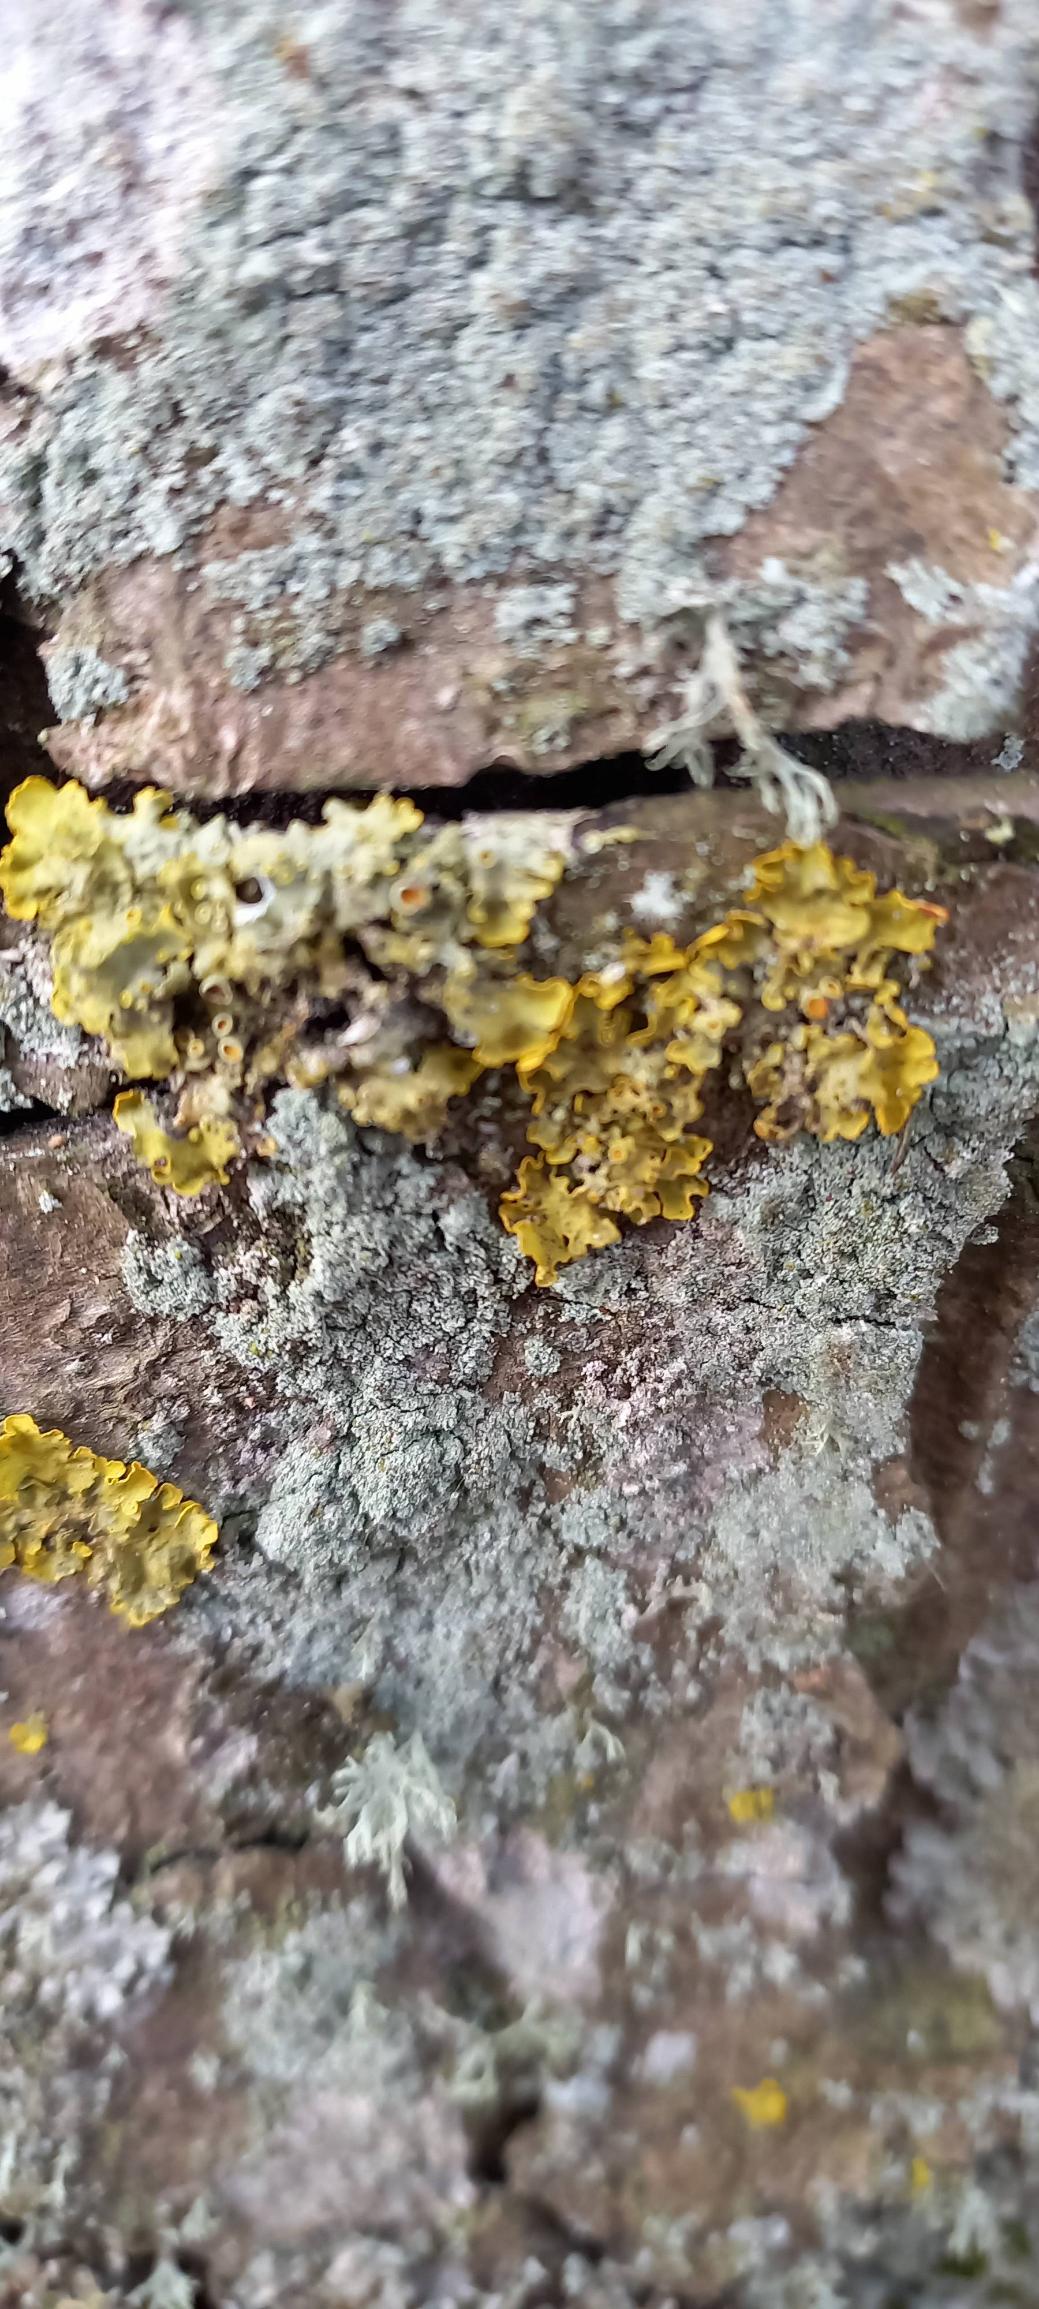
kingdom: Fungi
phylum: Ascomycota
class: Lecanoromycetes
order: Teloschistales
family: Teloschistaceae
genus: Xanthoria
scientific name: Xanthoria parietina
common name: Almindelig væggelav
